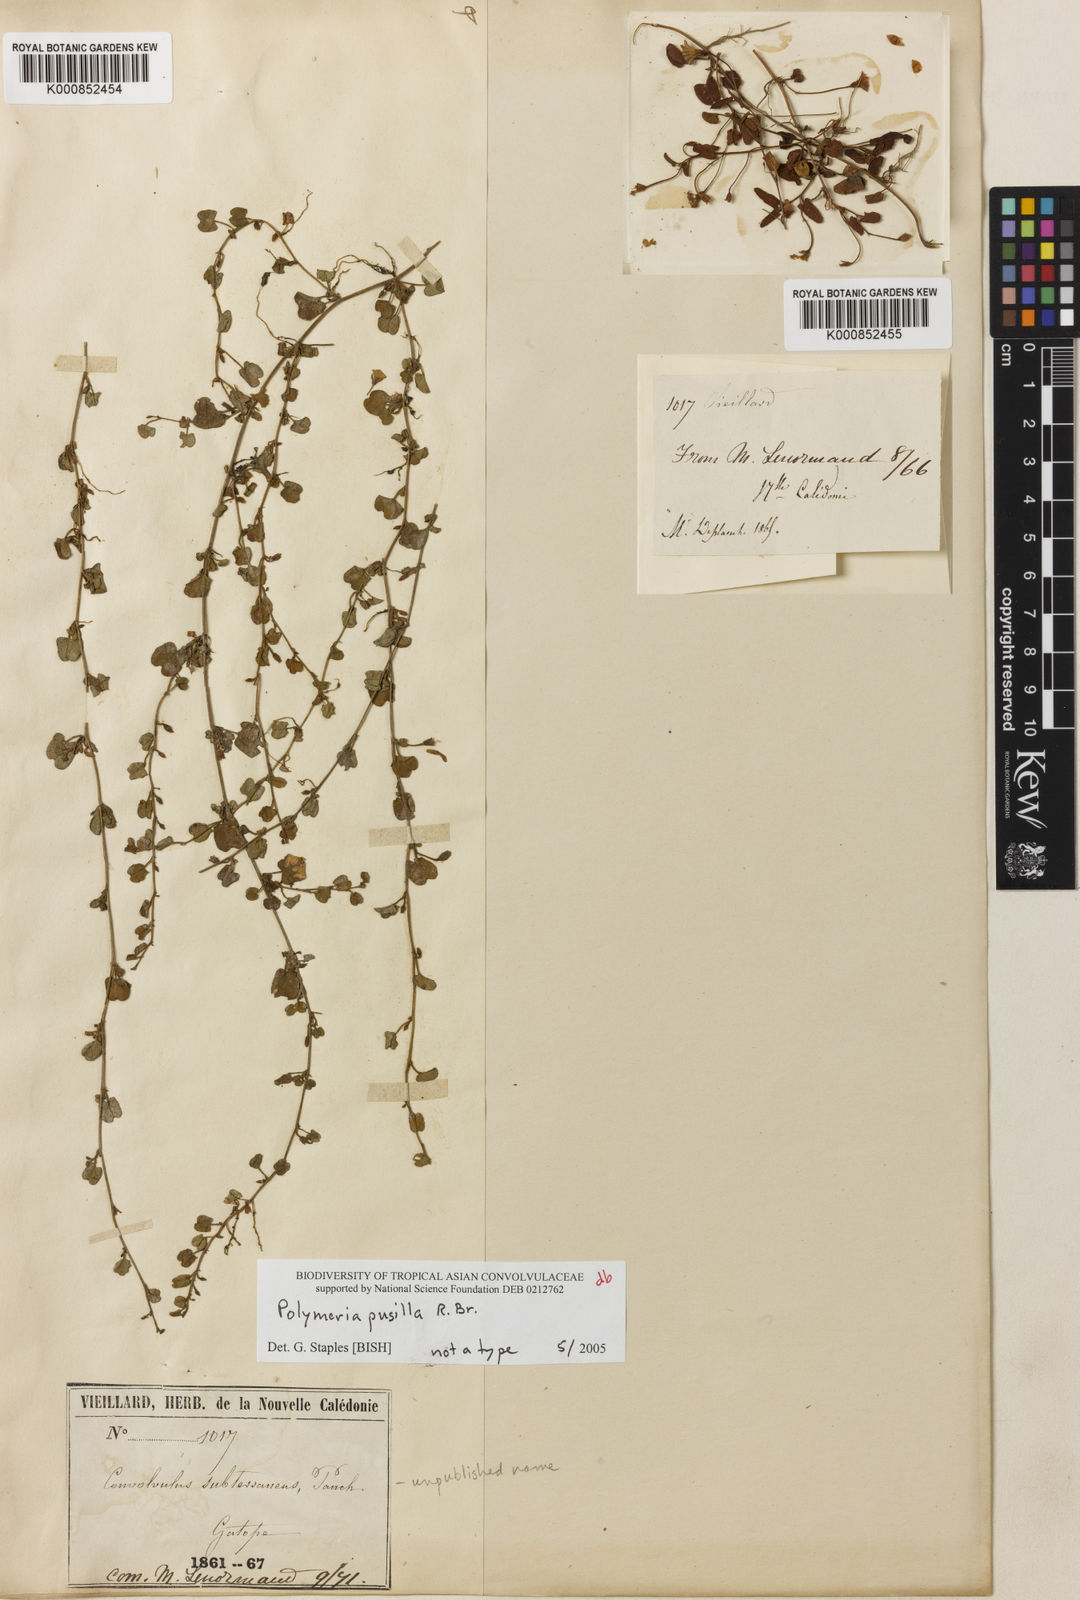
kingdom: Plantae
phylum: Tracheophyta
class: Magnoliopsida
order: Solanales
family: Convolvulaceae
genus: Polymeria
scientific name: Polymeria pusilla
